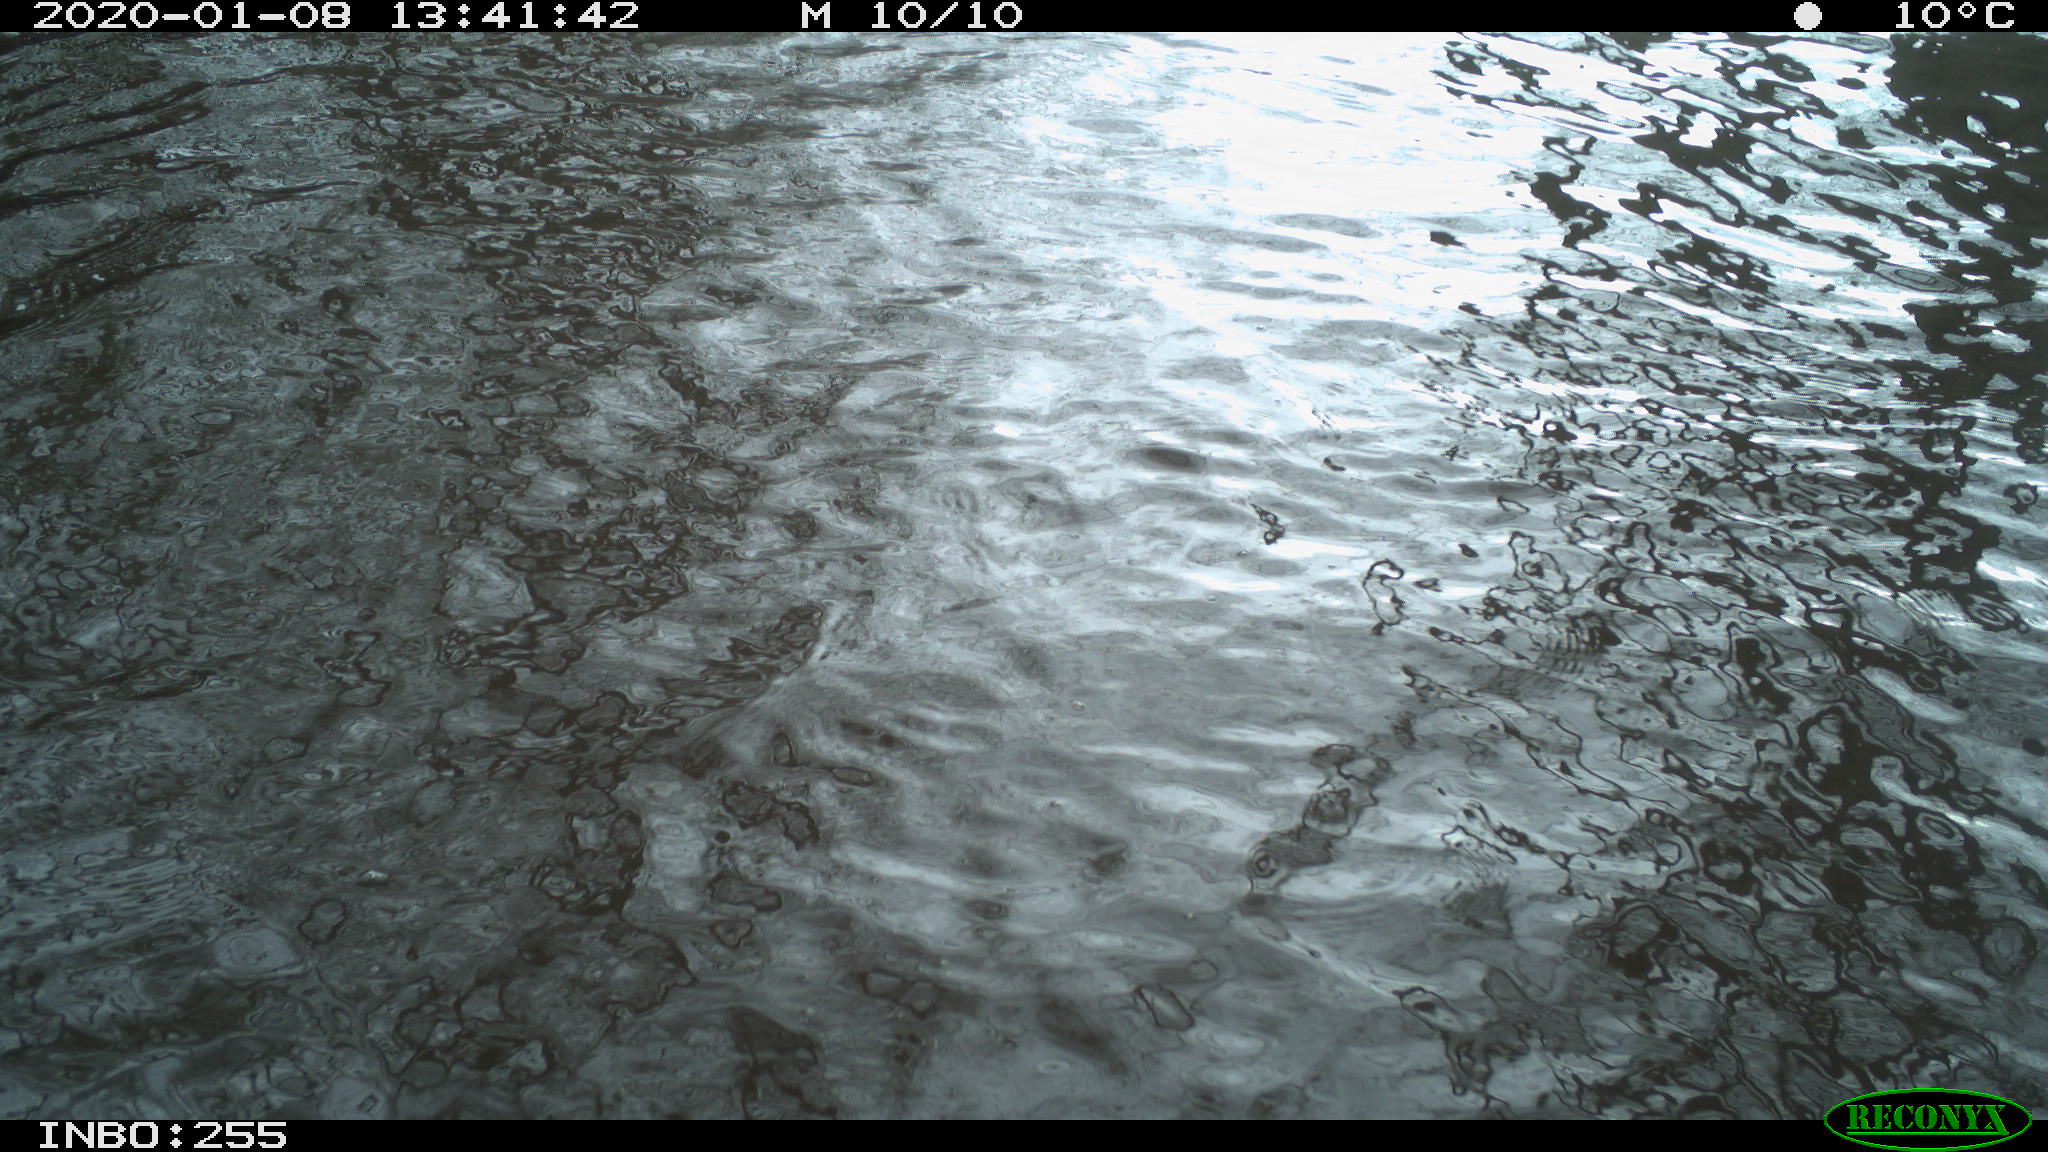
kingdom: Animalia
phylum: Chordata
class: Aves
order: Anseriformes
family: Anatidae
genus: Anas
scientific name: Anas platyrhynchos
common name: Mallard
